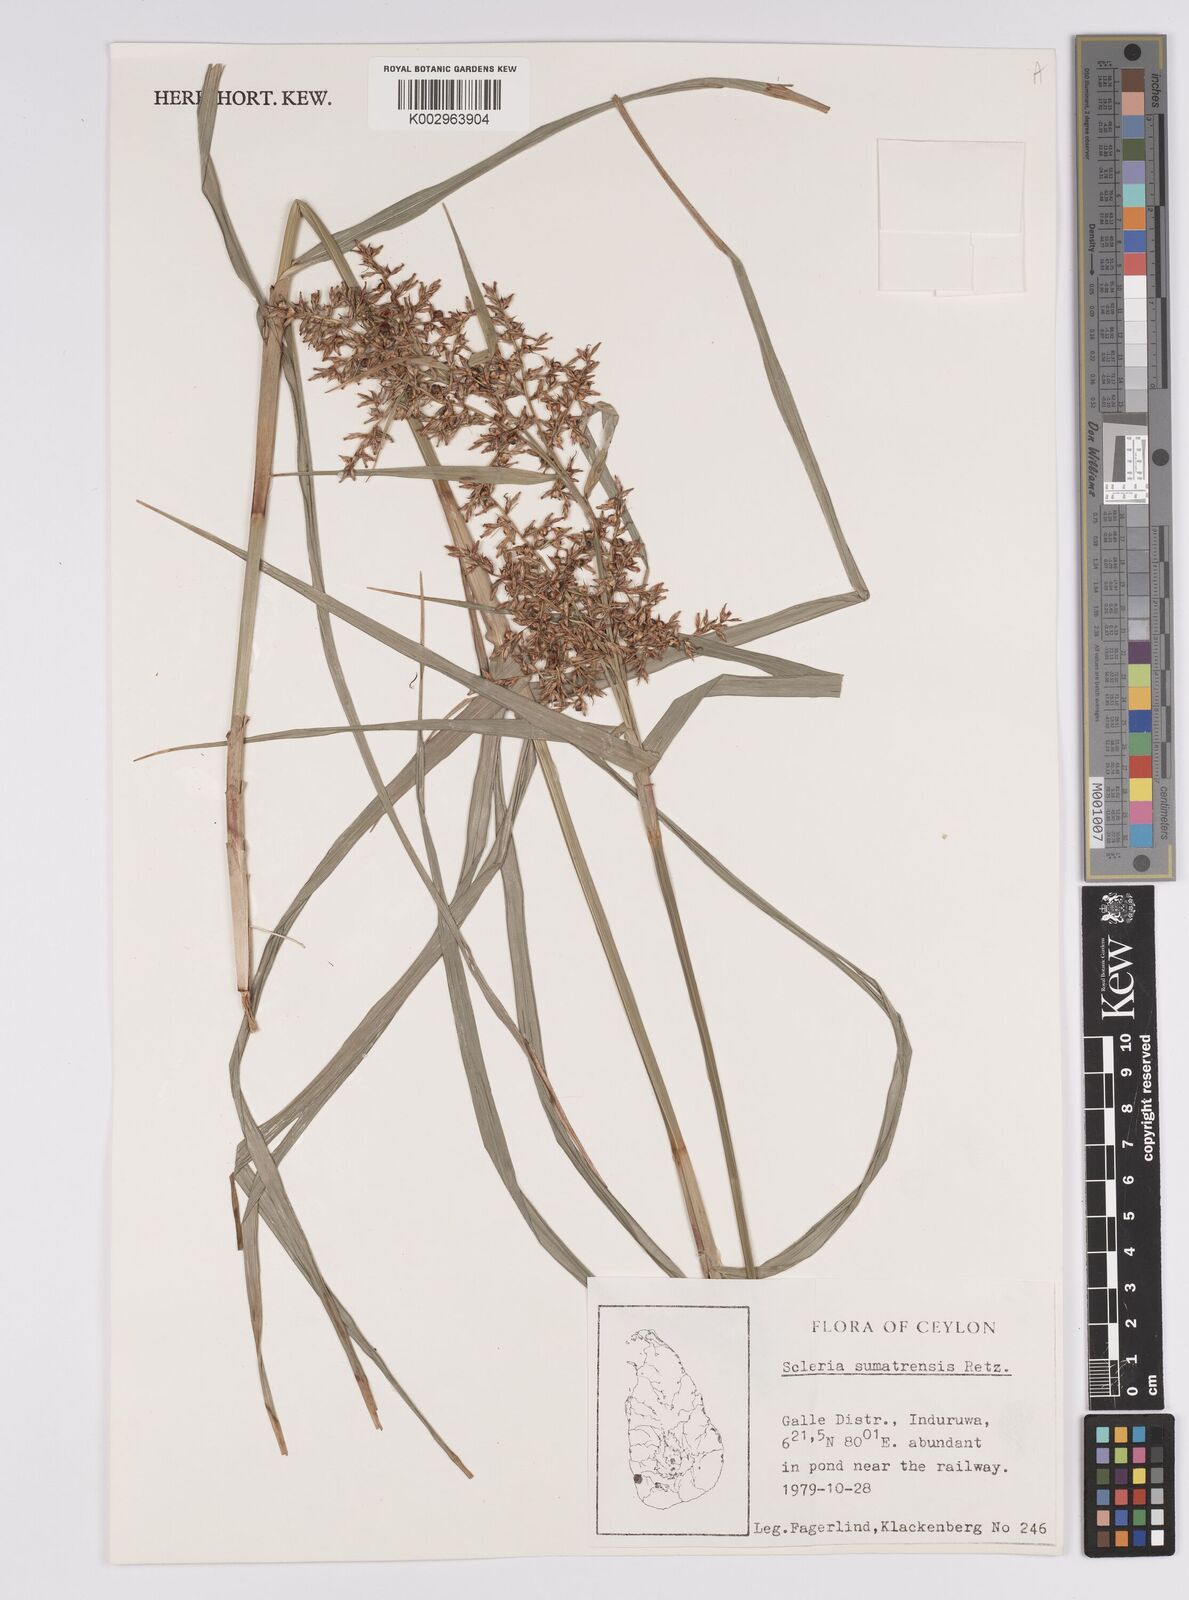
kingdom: Plantae
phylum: Tracheophyta
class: Liliopsida
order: Poales
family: Cyperaceae
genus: Scleria
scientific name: Scleria sumatrensis
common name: Sumatran scleria
